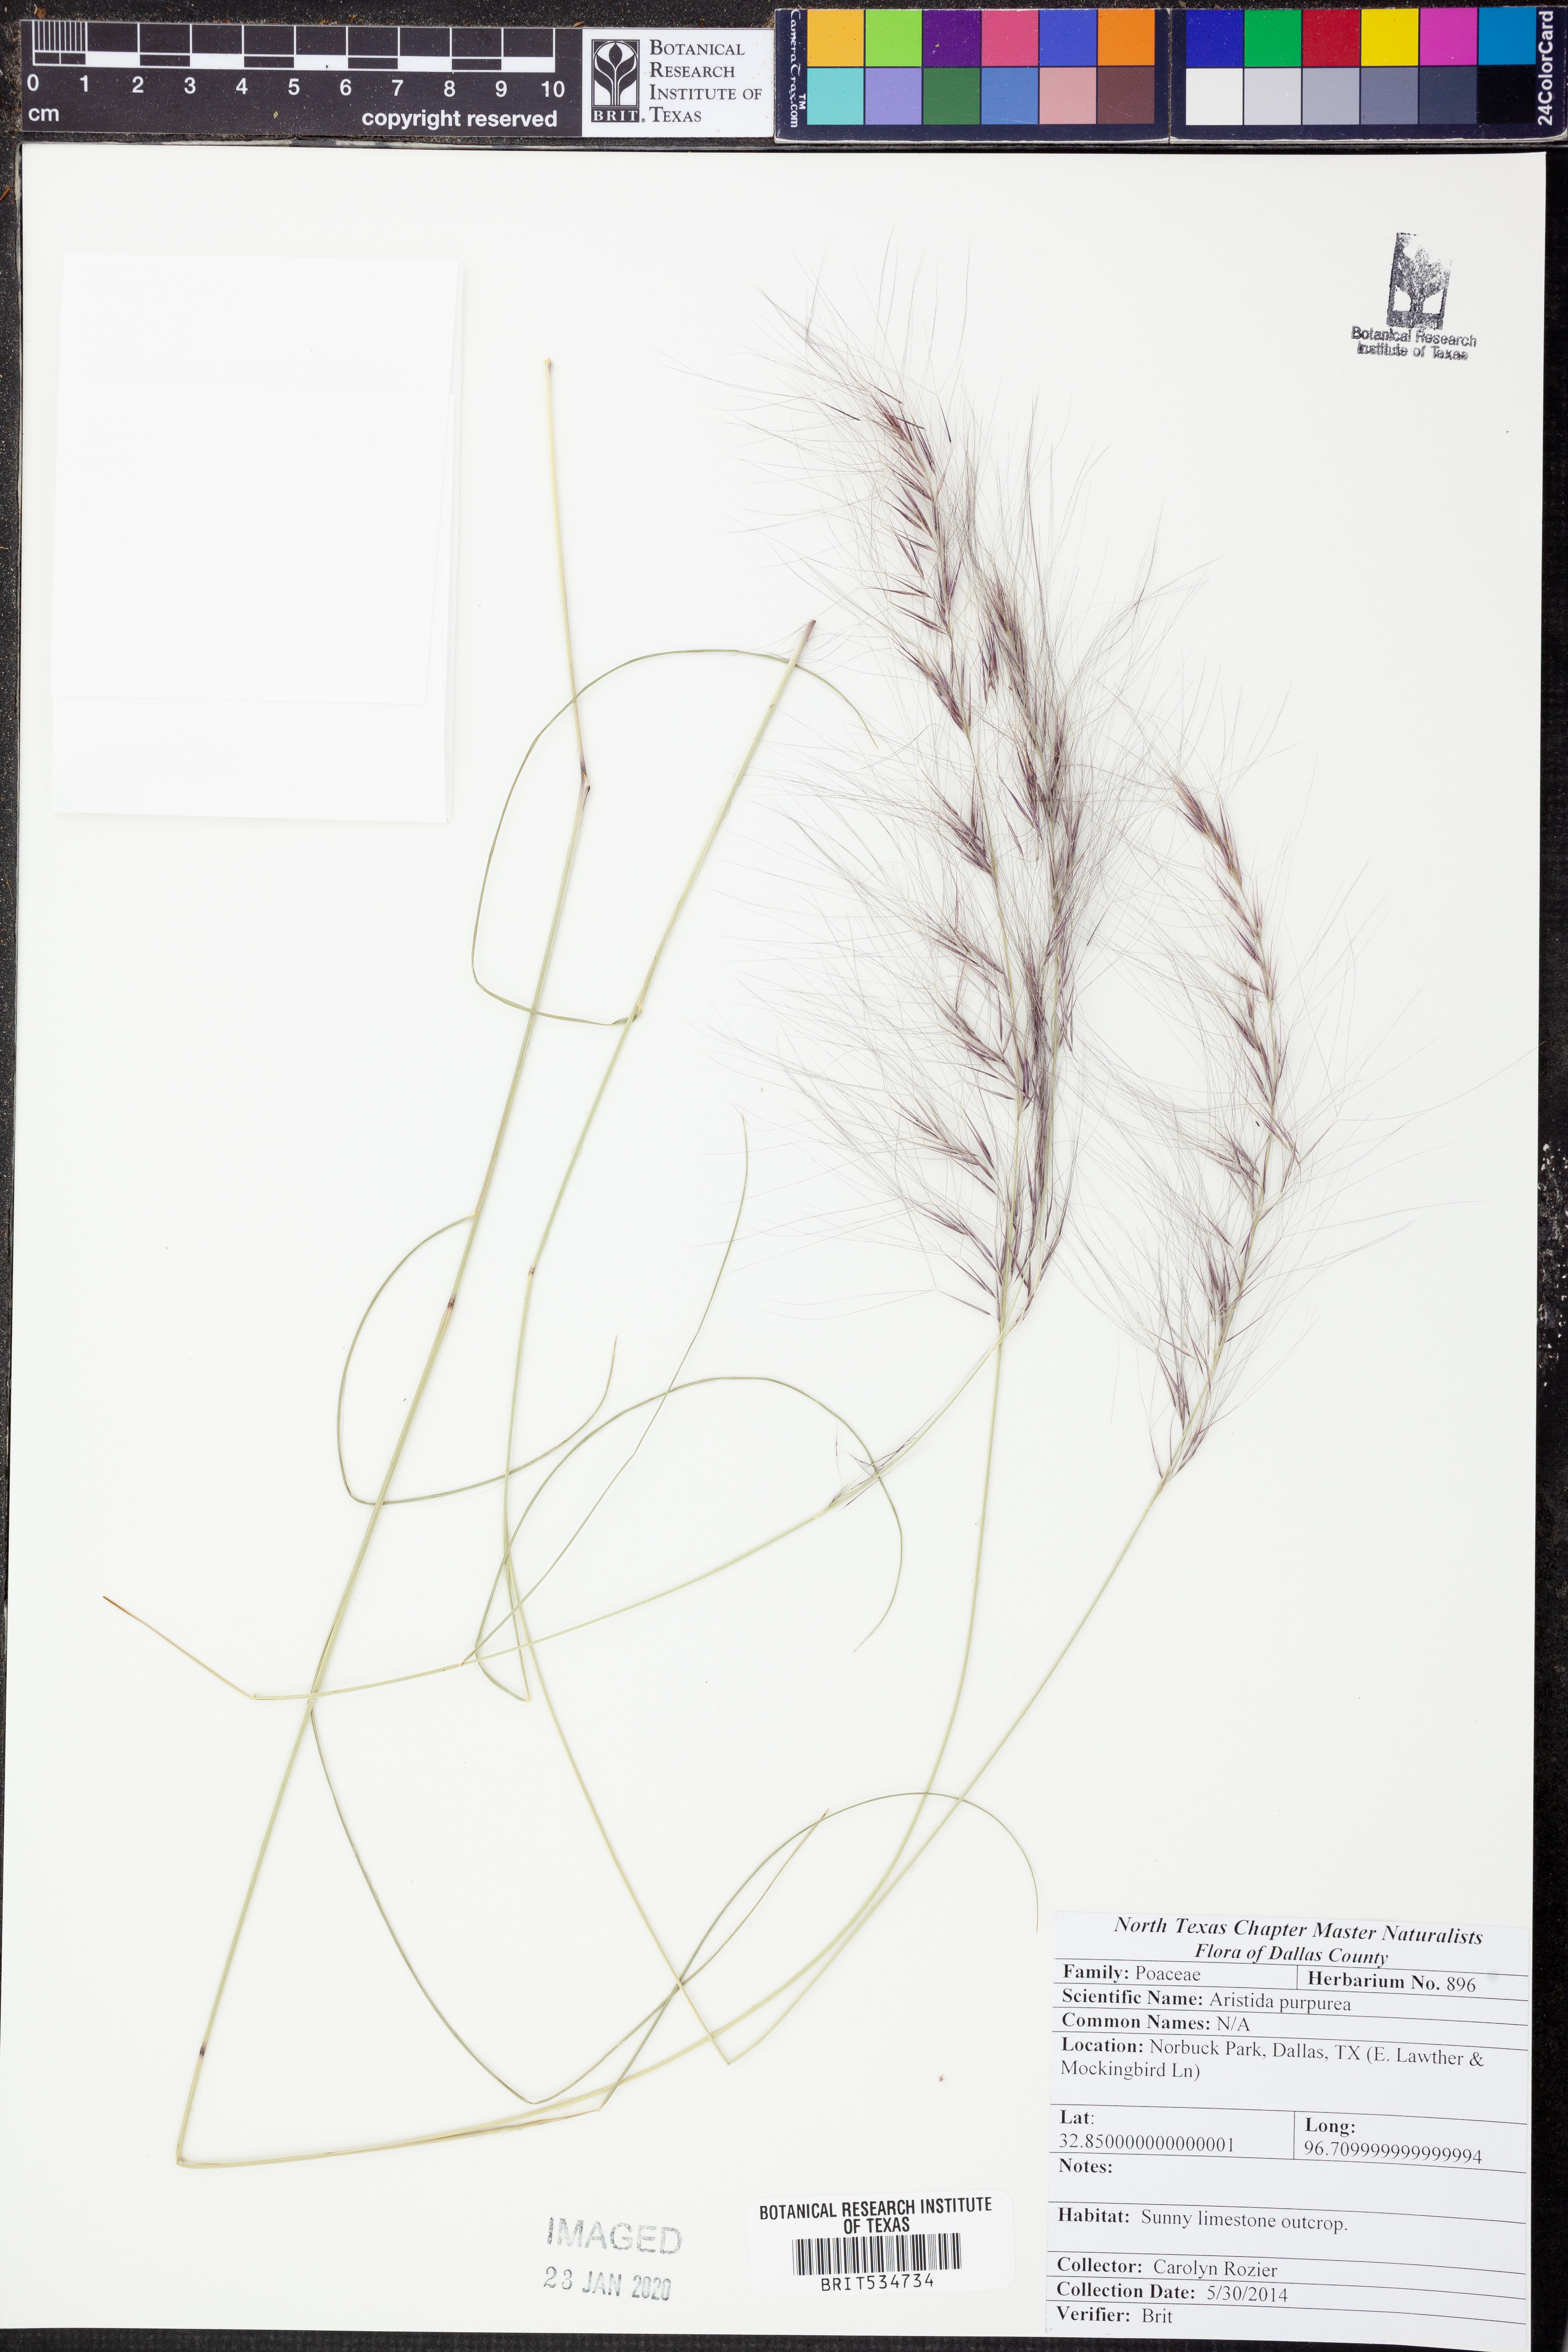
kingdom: Plantae
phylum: Tracheophyta
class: Liliopsida
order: Poales
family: Poaceae
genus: Aristida
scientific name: Aristida purpurea
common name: Purple threeawn
